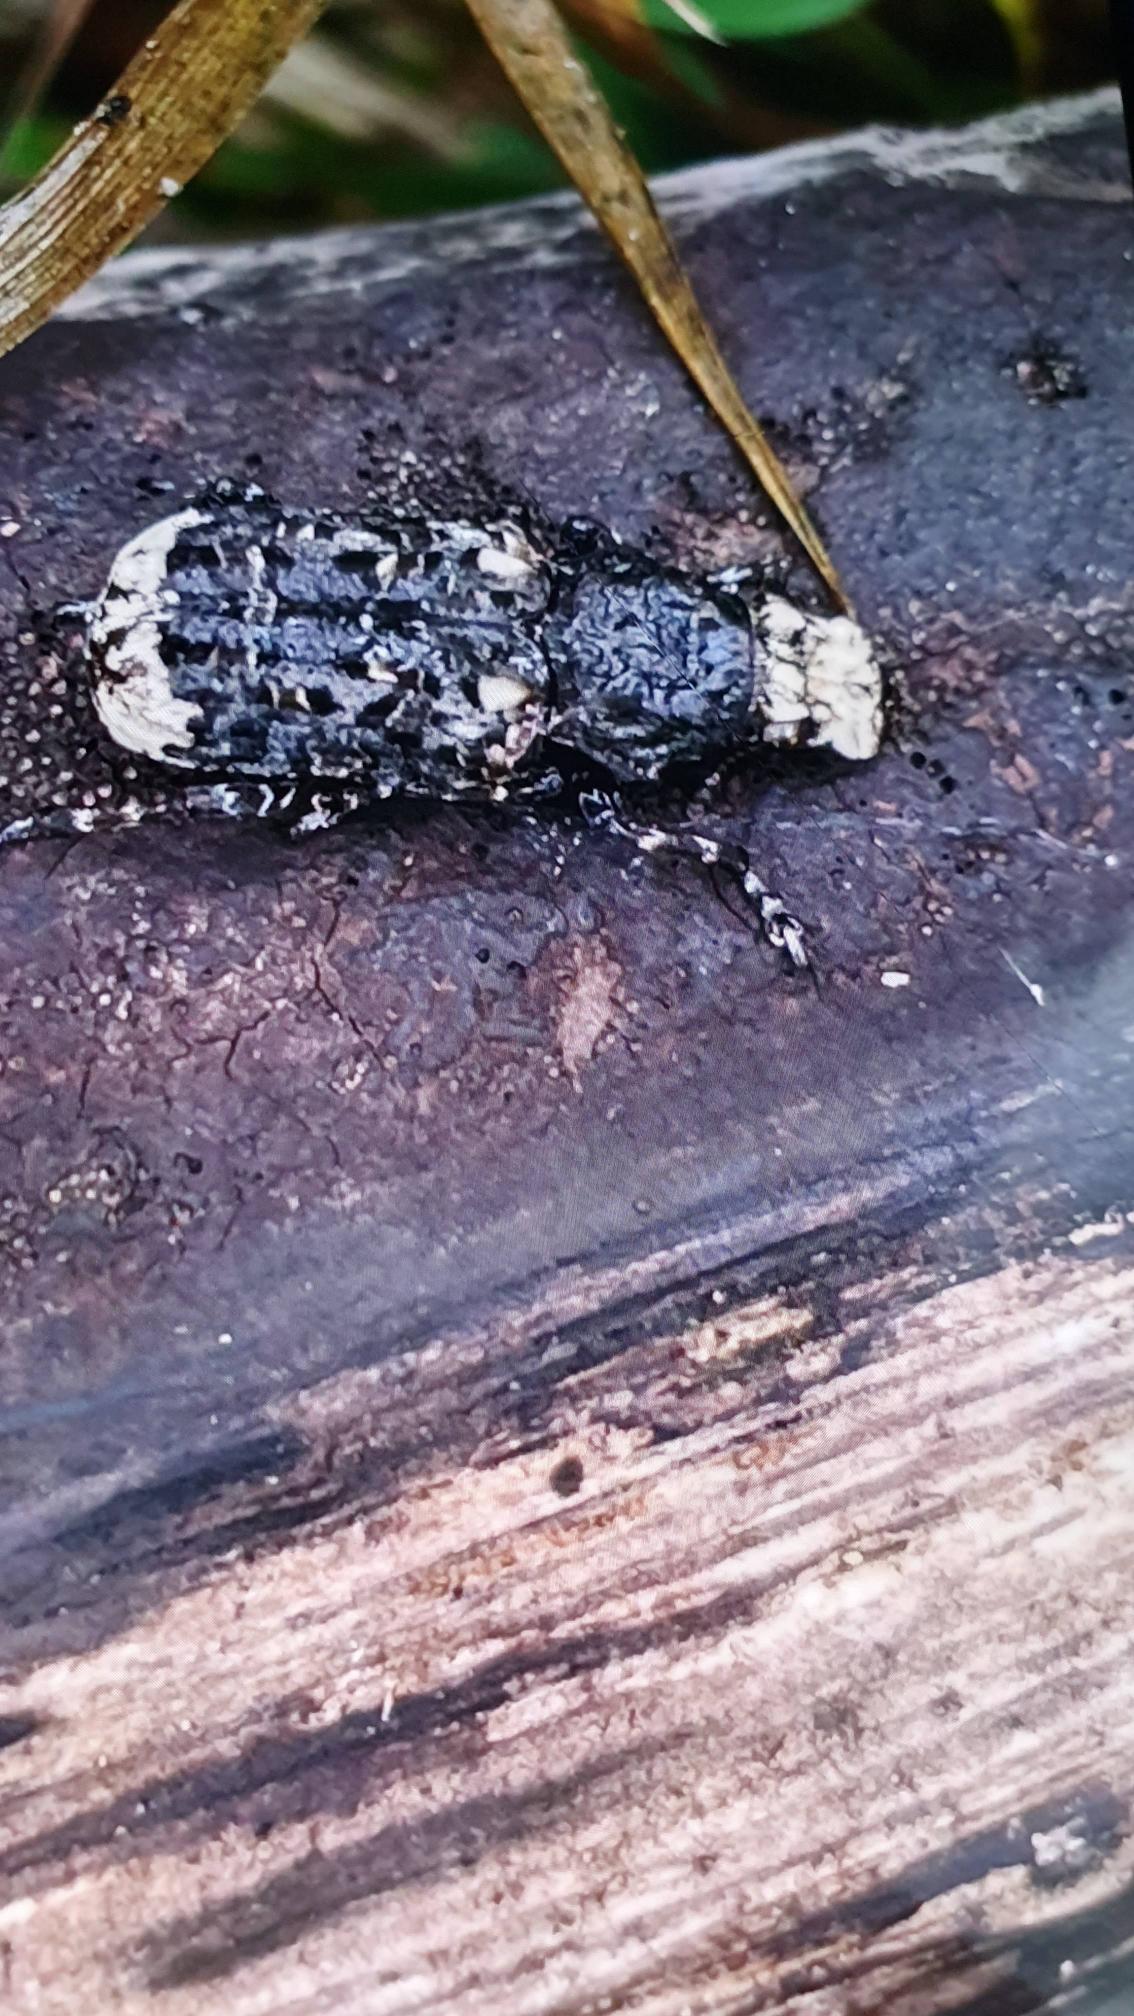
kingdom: Animalia
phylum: Arthropoda
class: Insecta
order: Coleoptera
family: Anthribidae
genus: Platyrhinus
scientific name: Platyrhinus resinosus
